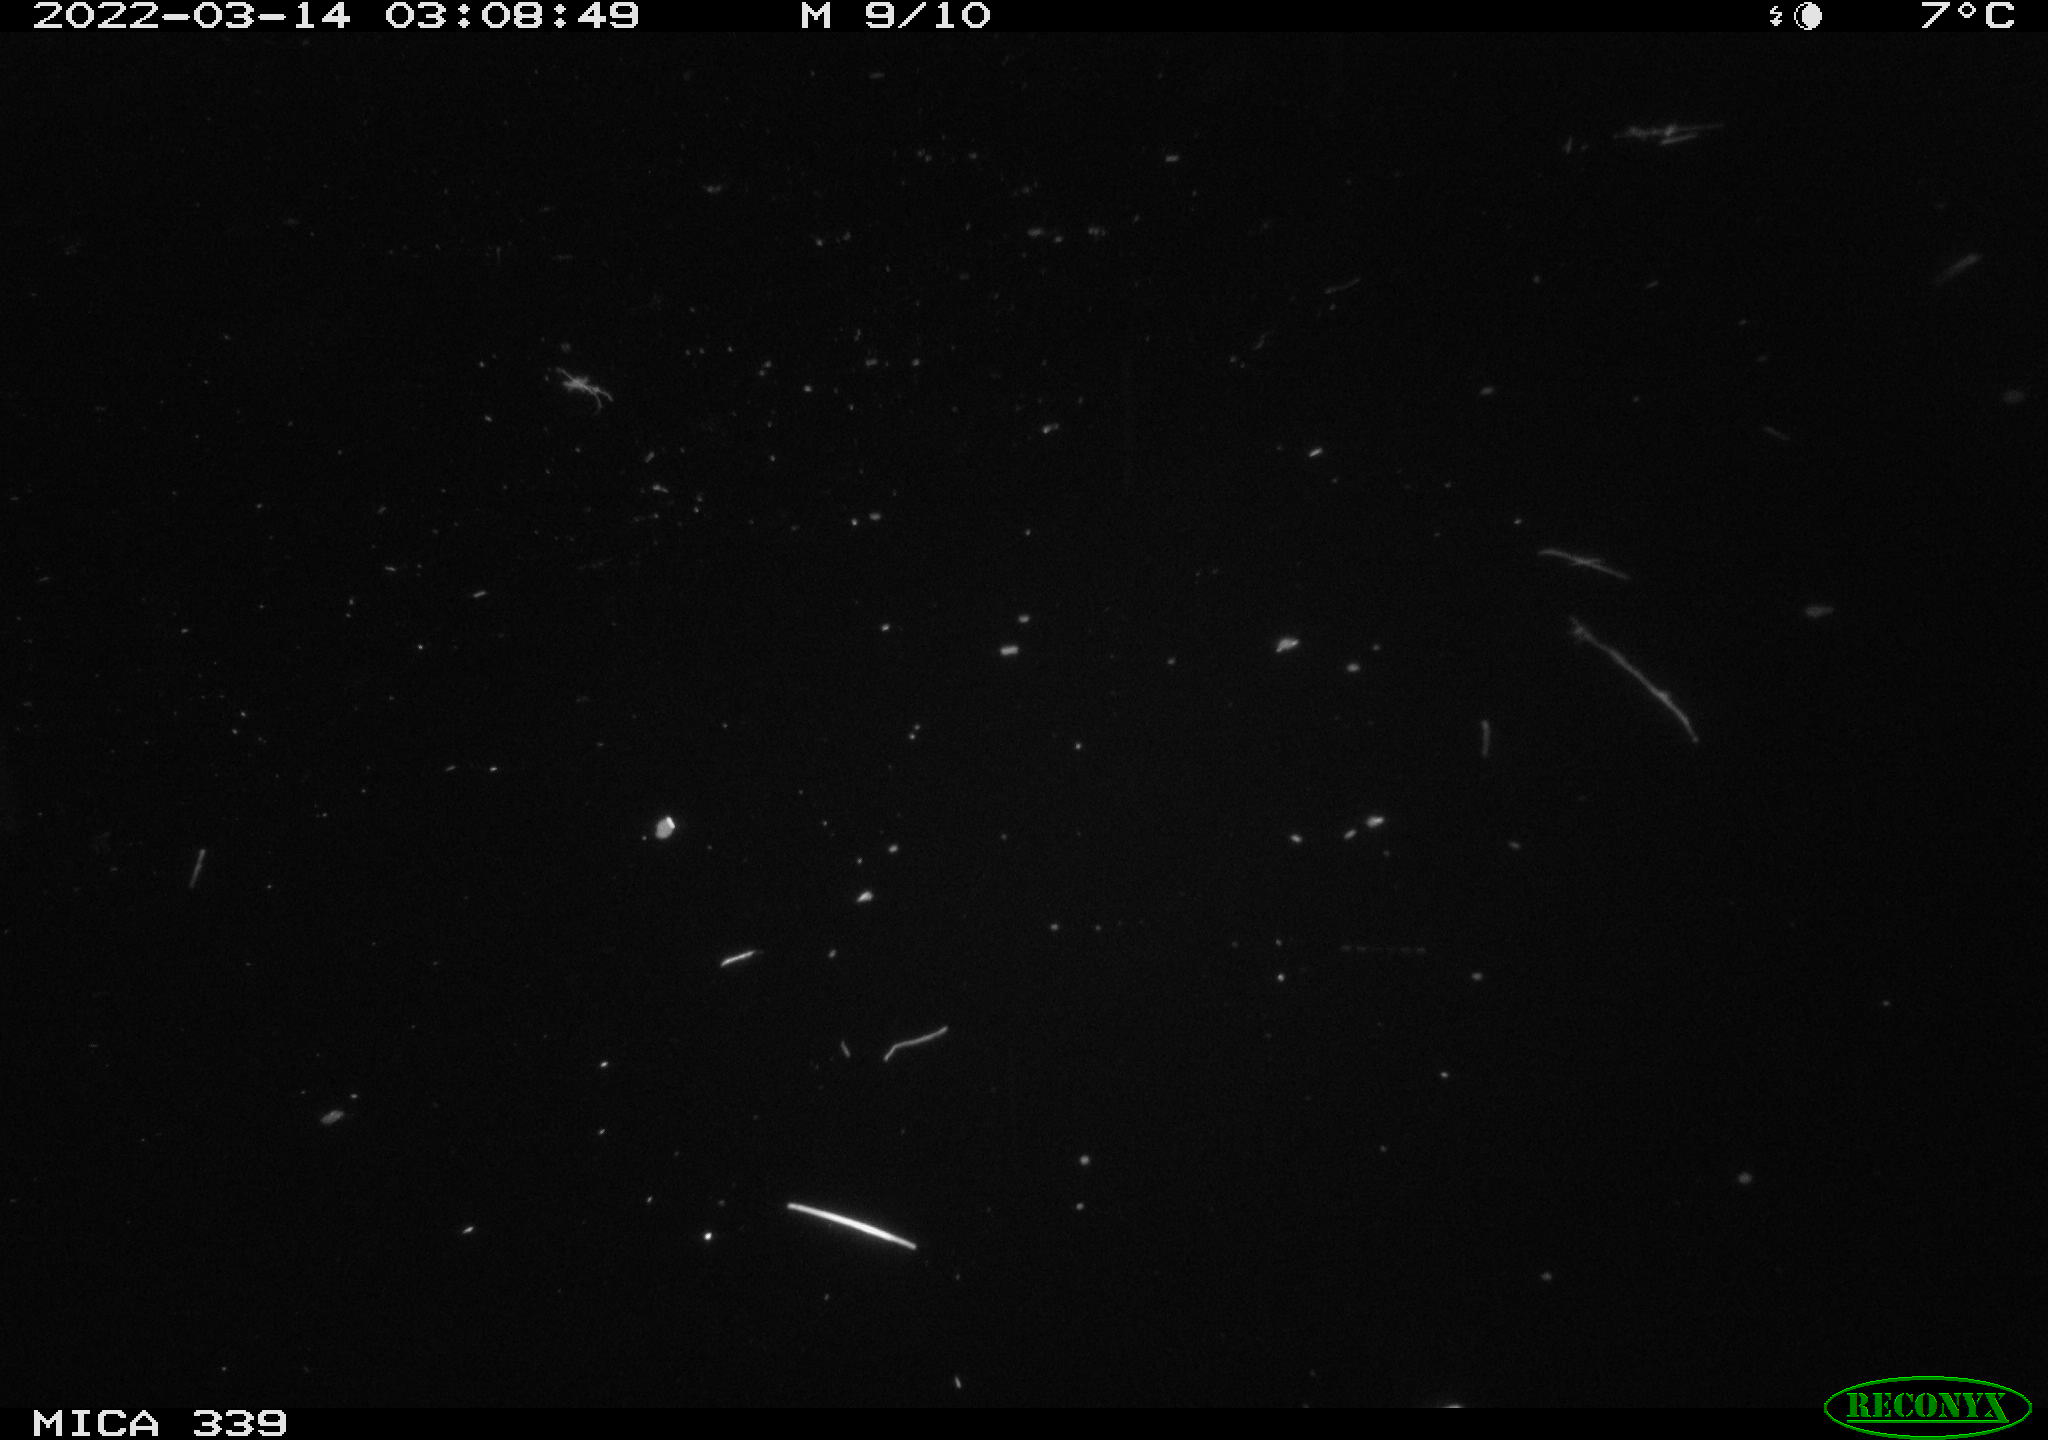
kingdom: Animalia
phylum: Chordata
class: Mammalia
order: Rodentia
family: Muridae
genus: Rattus
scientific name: Rattus norvegicus
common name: Brown rat
